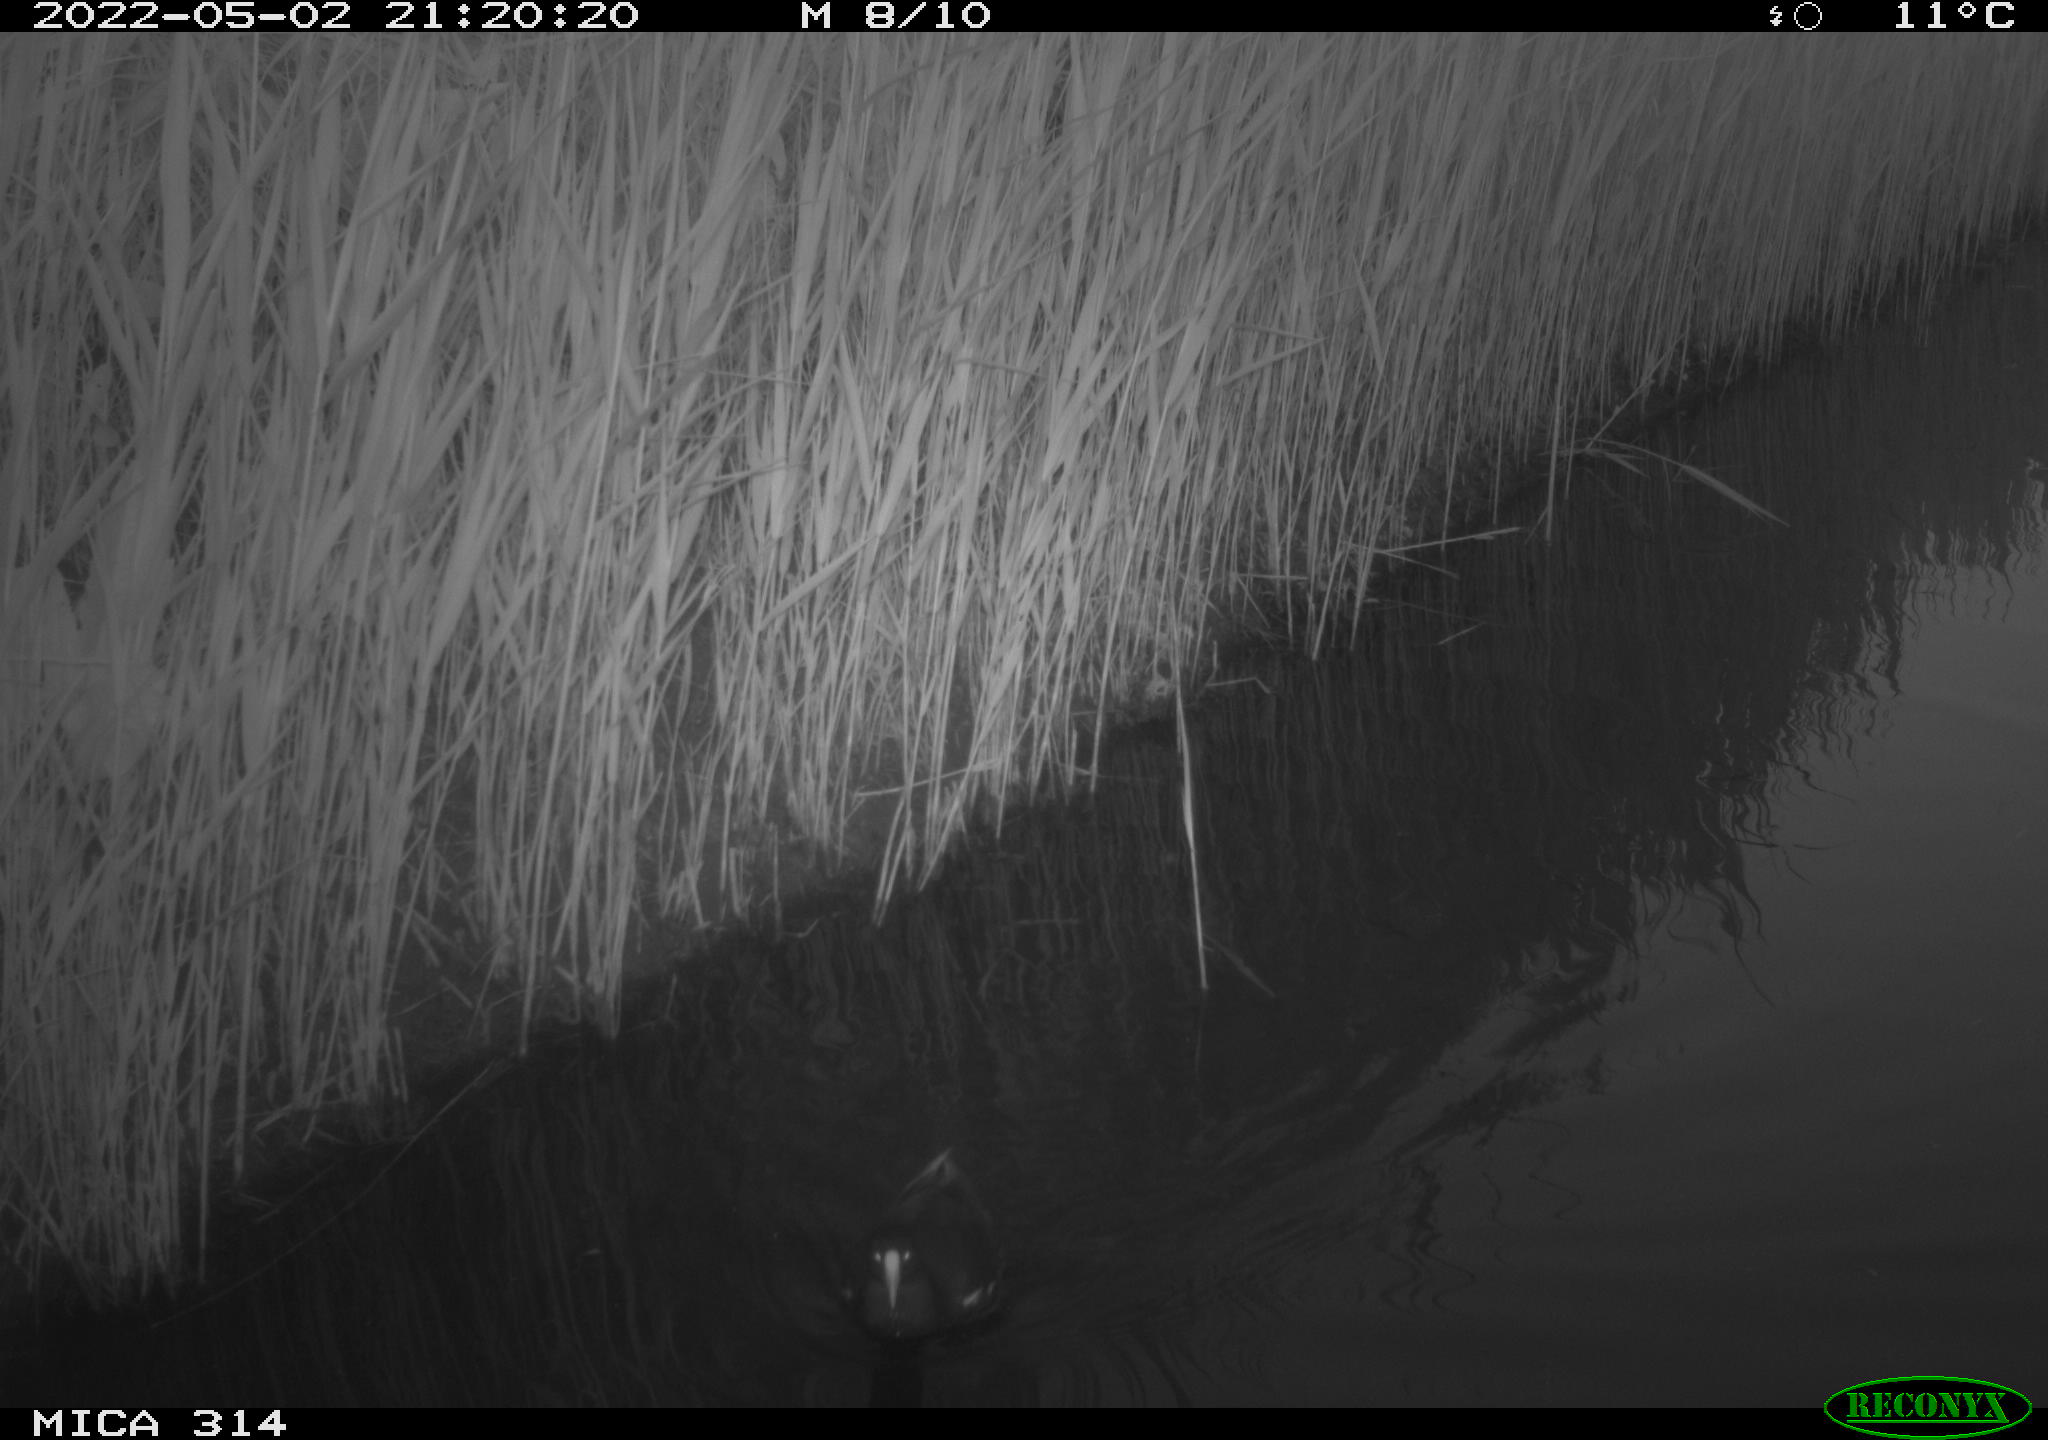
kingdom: Animalia
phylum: Chordata
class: Aves
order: Gruiformes
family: Rallidae
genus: Gallinula
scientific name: Gallinula chloropus
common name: Common moorhen
